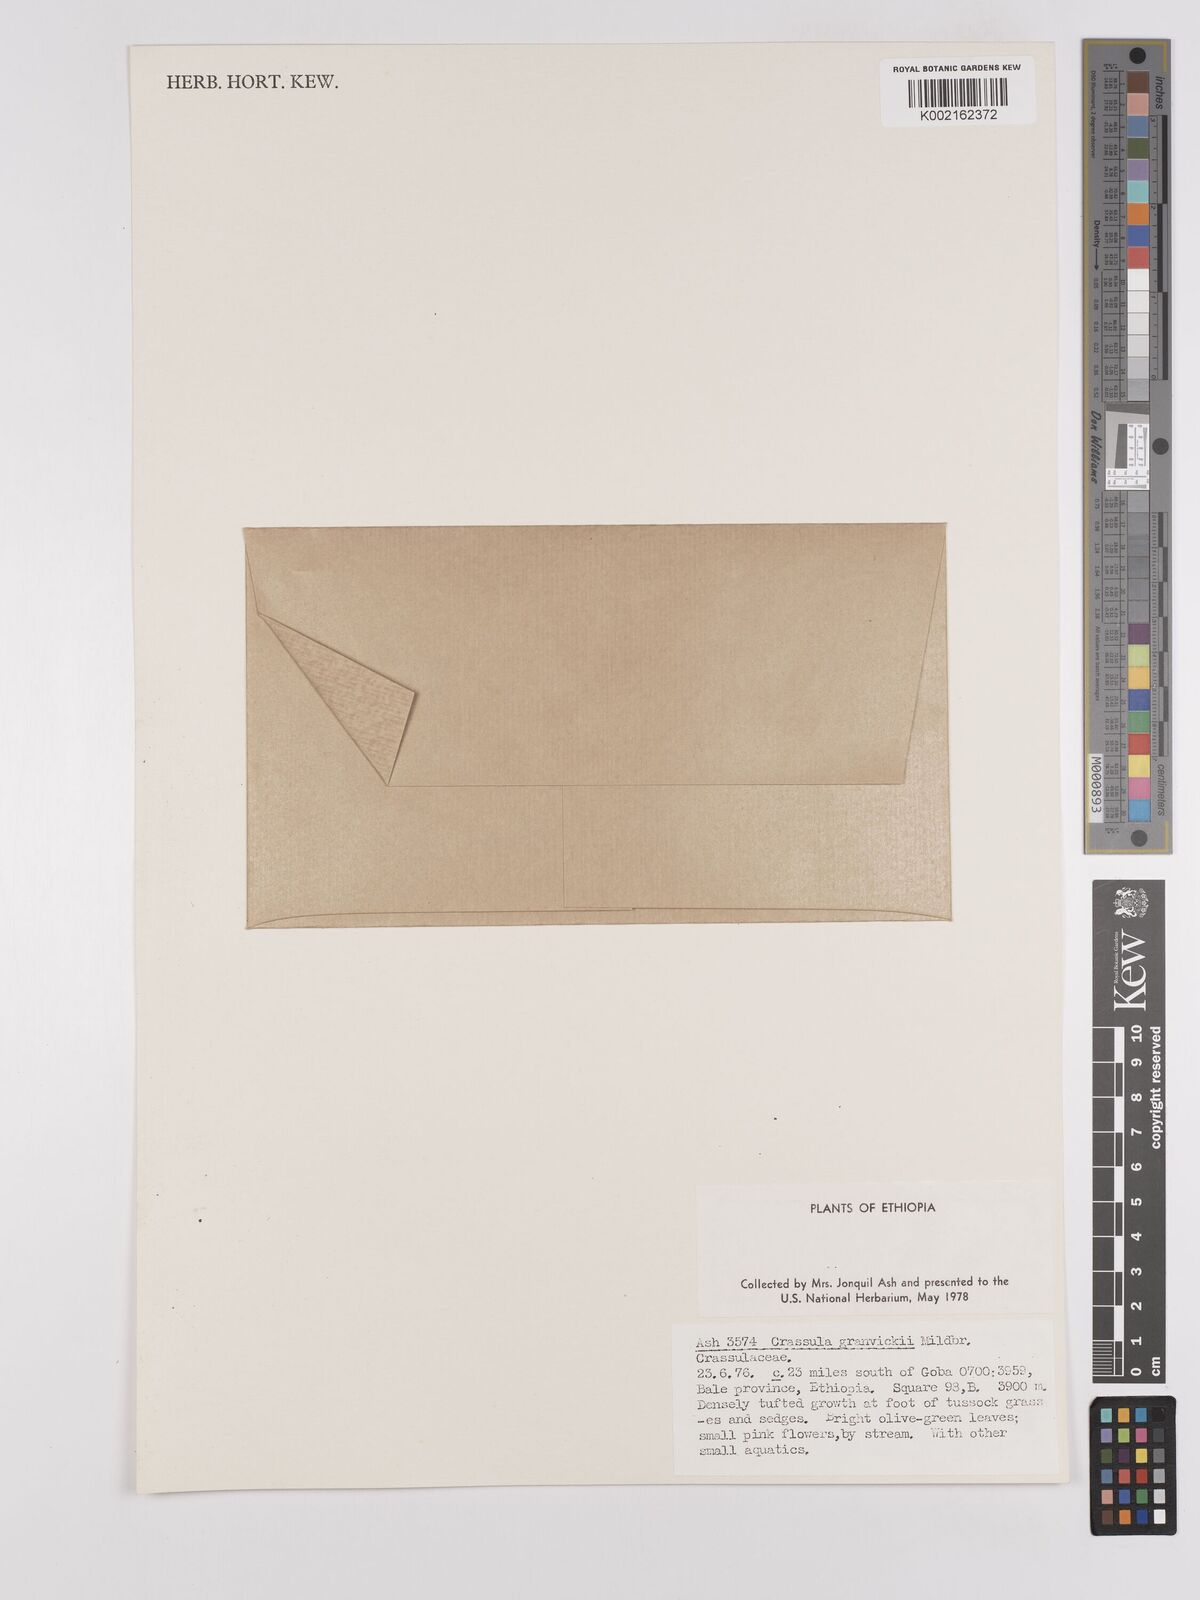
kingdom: Plantae
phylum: Tracheophyta
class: Magnoliopsida
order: Saxifragales
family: Crassulaceae
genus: Crassula
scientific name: Crassula granvikii
